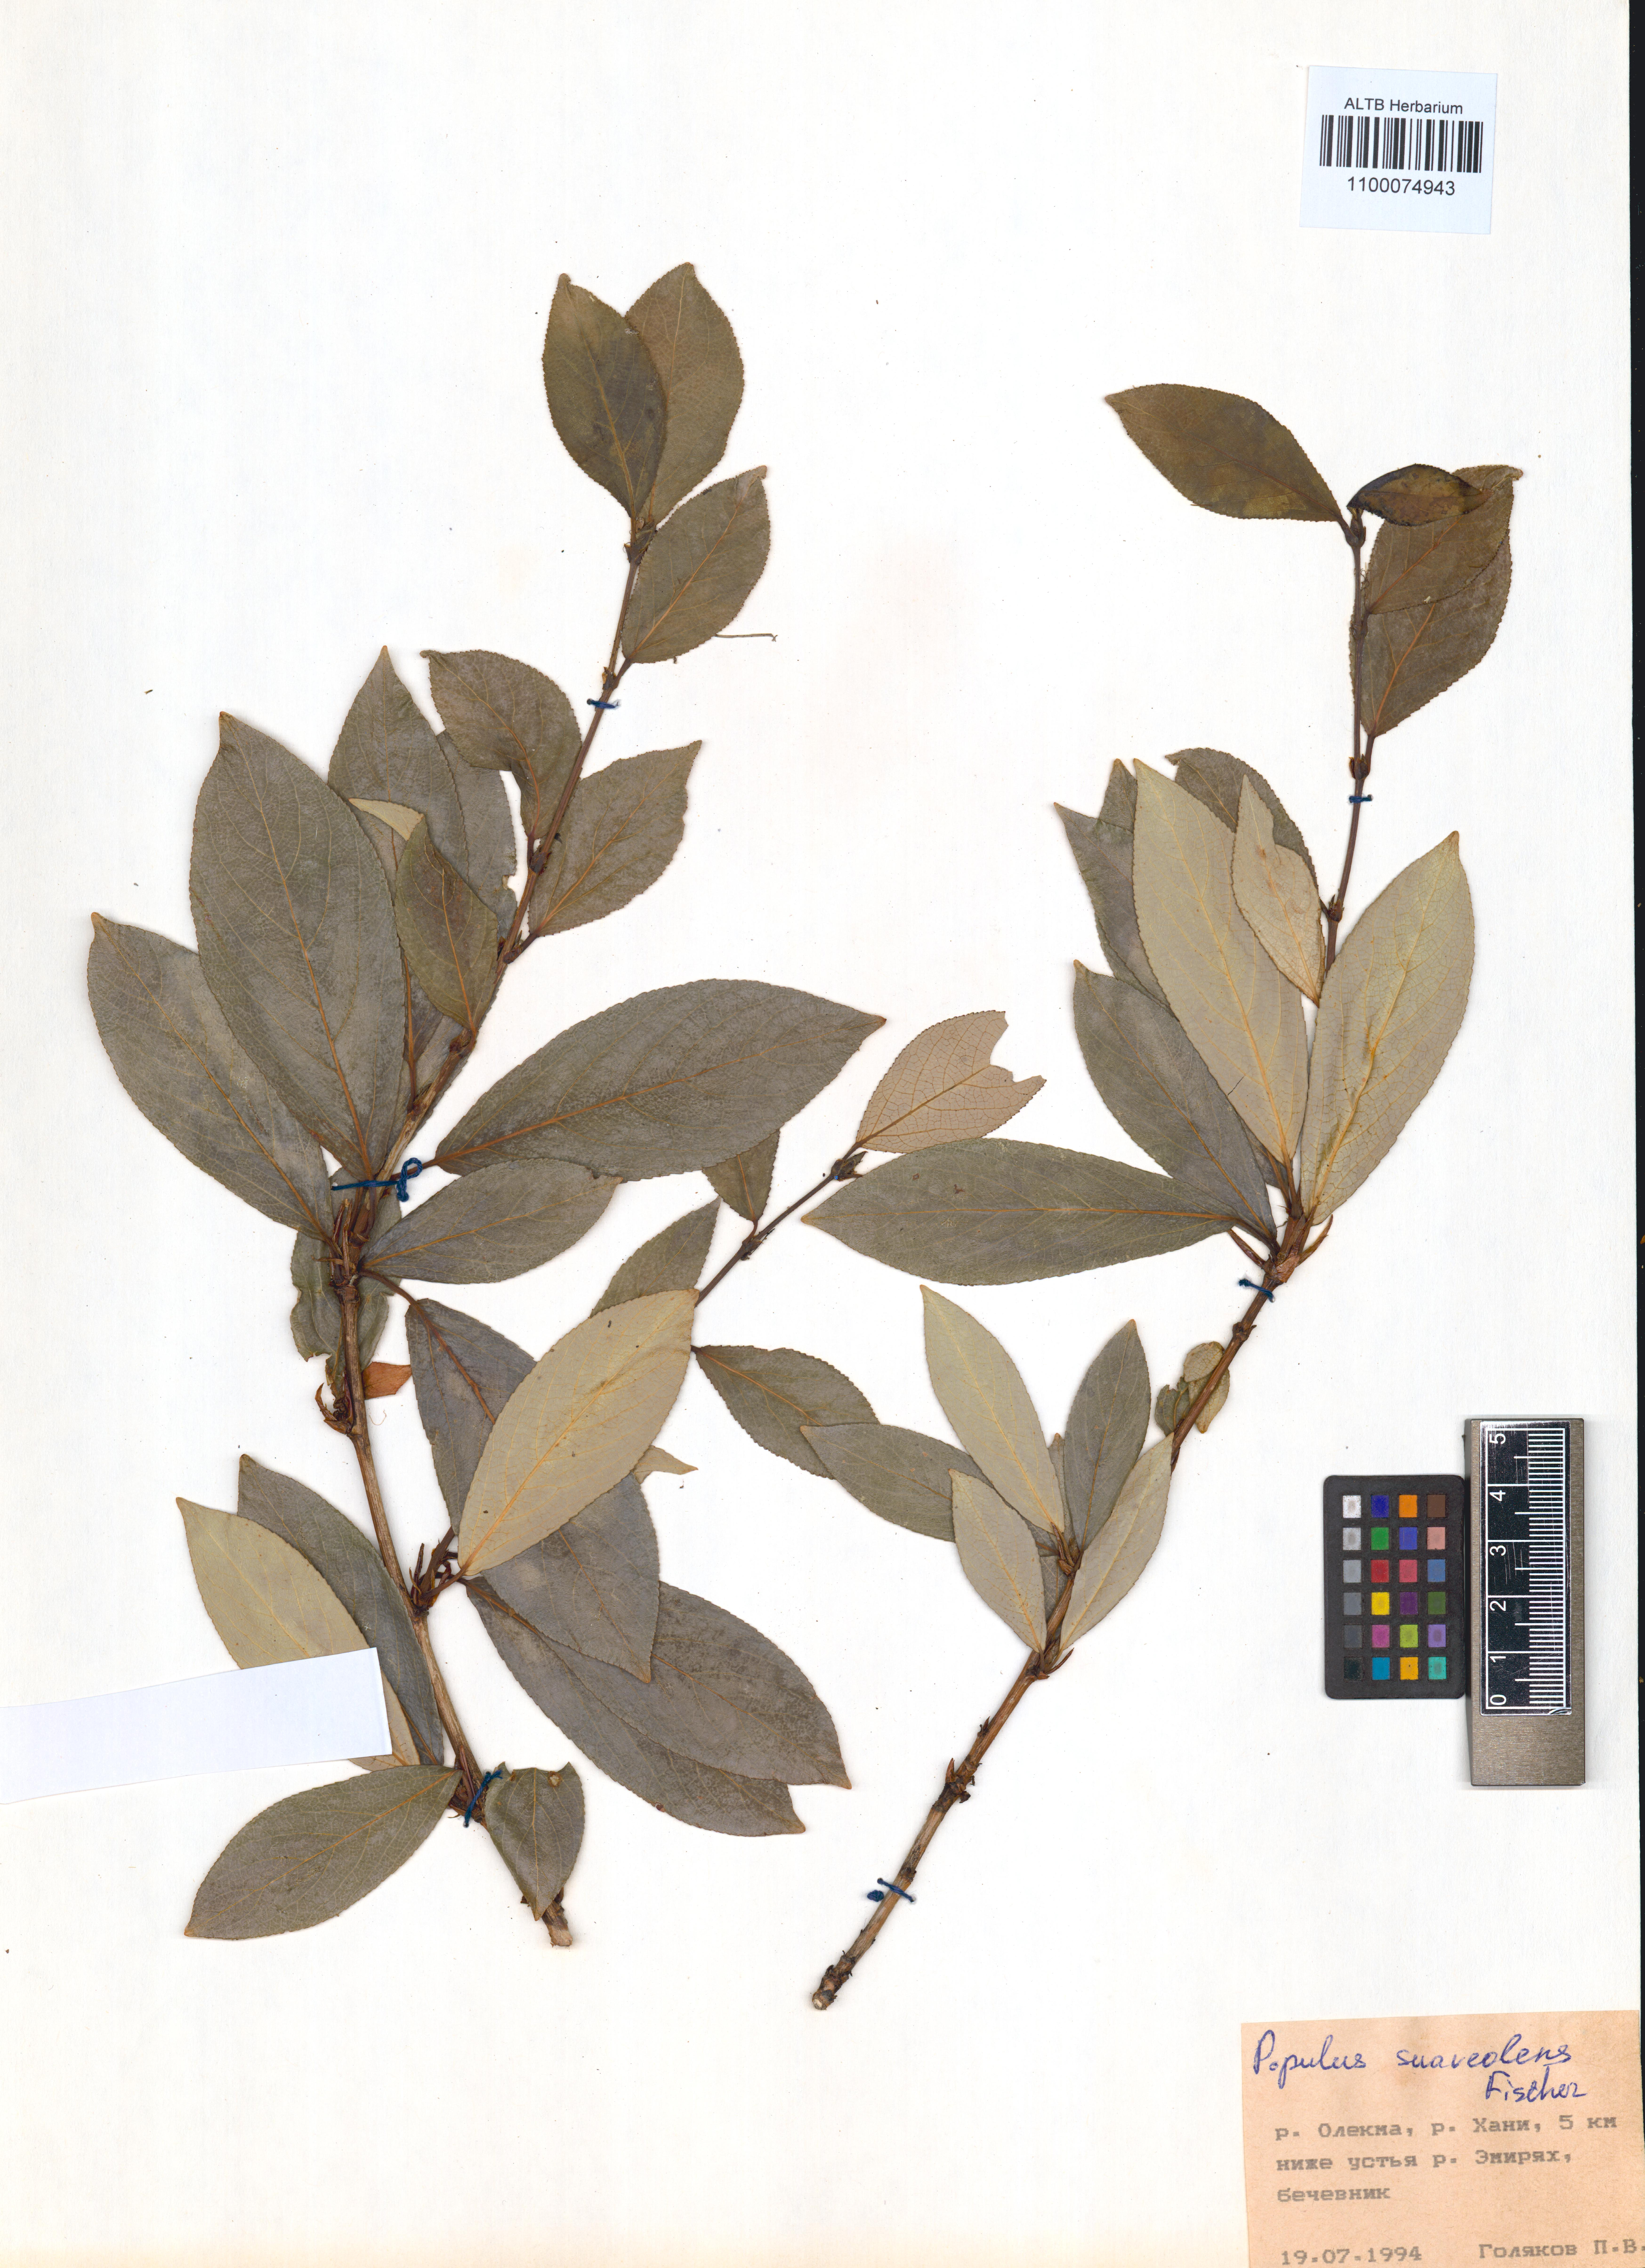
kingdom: Plantae
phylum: Tracheophyta
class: Magnoliopsida
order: Malpighiales
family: Salicaceae
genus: Populus
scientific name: Populus suaveolens
